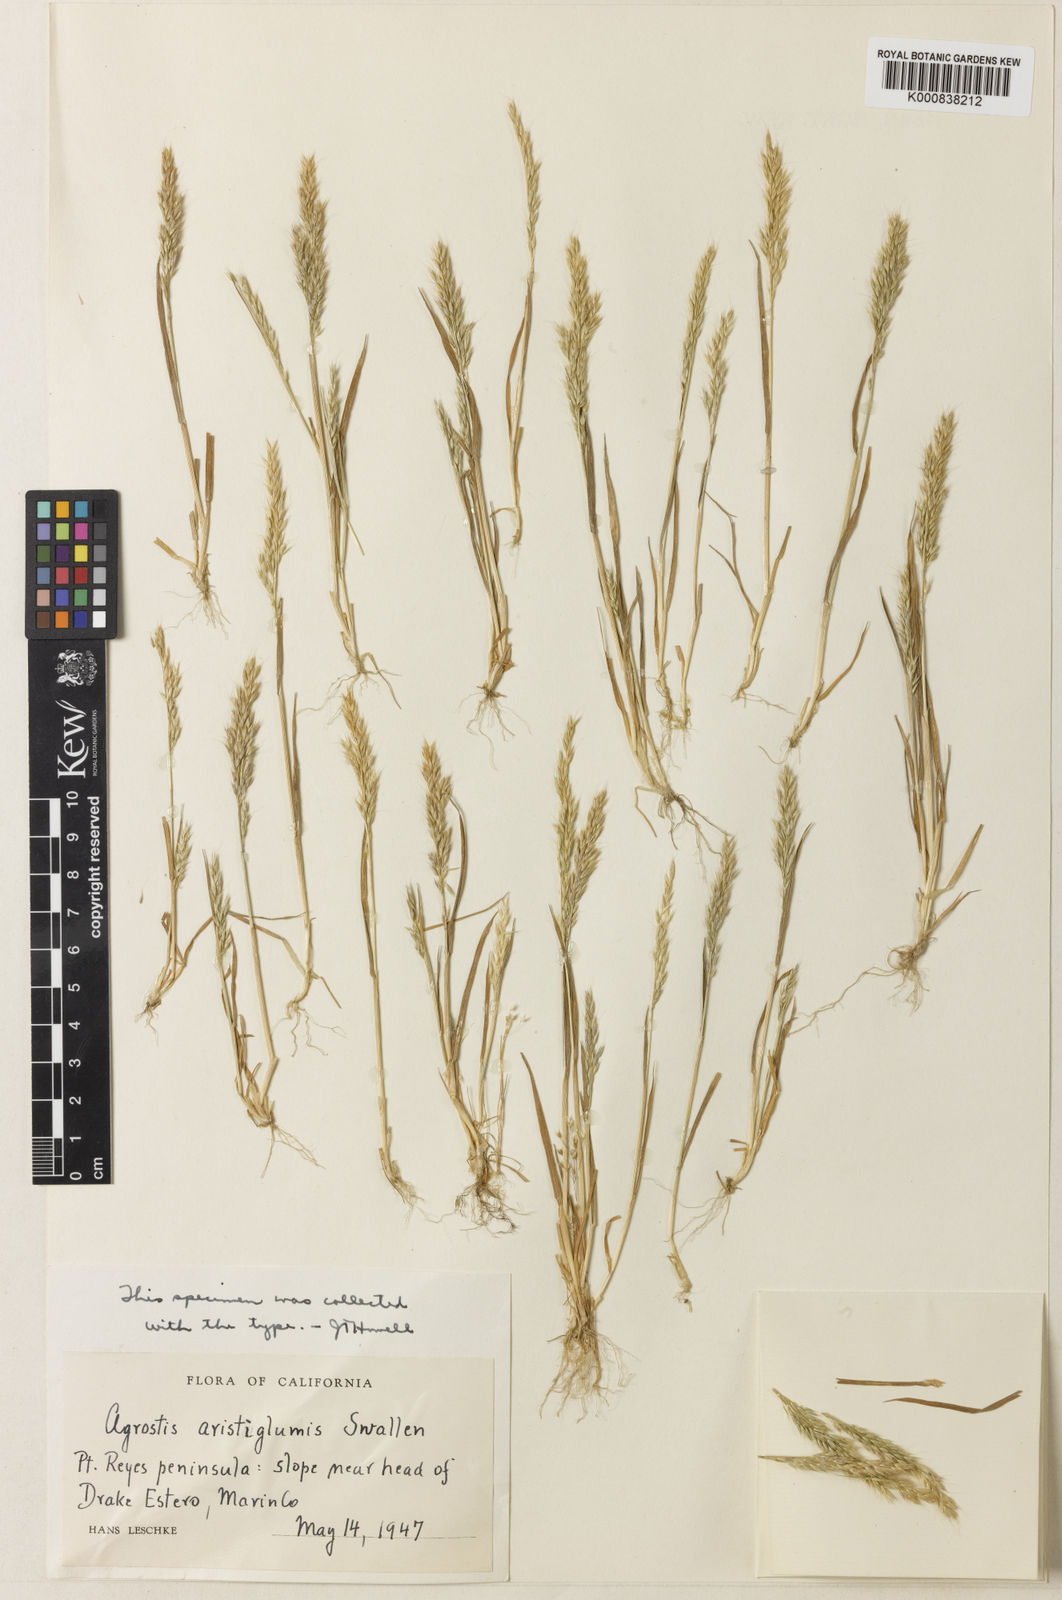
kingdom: Plantae
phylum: Tracheophyta
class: Liliopsida
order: Poales
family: Poaceae
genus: Agrostis
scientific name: Agrostis microphylla
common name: Small-leaf bent
